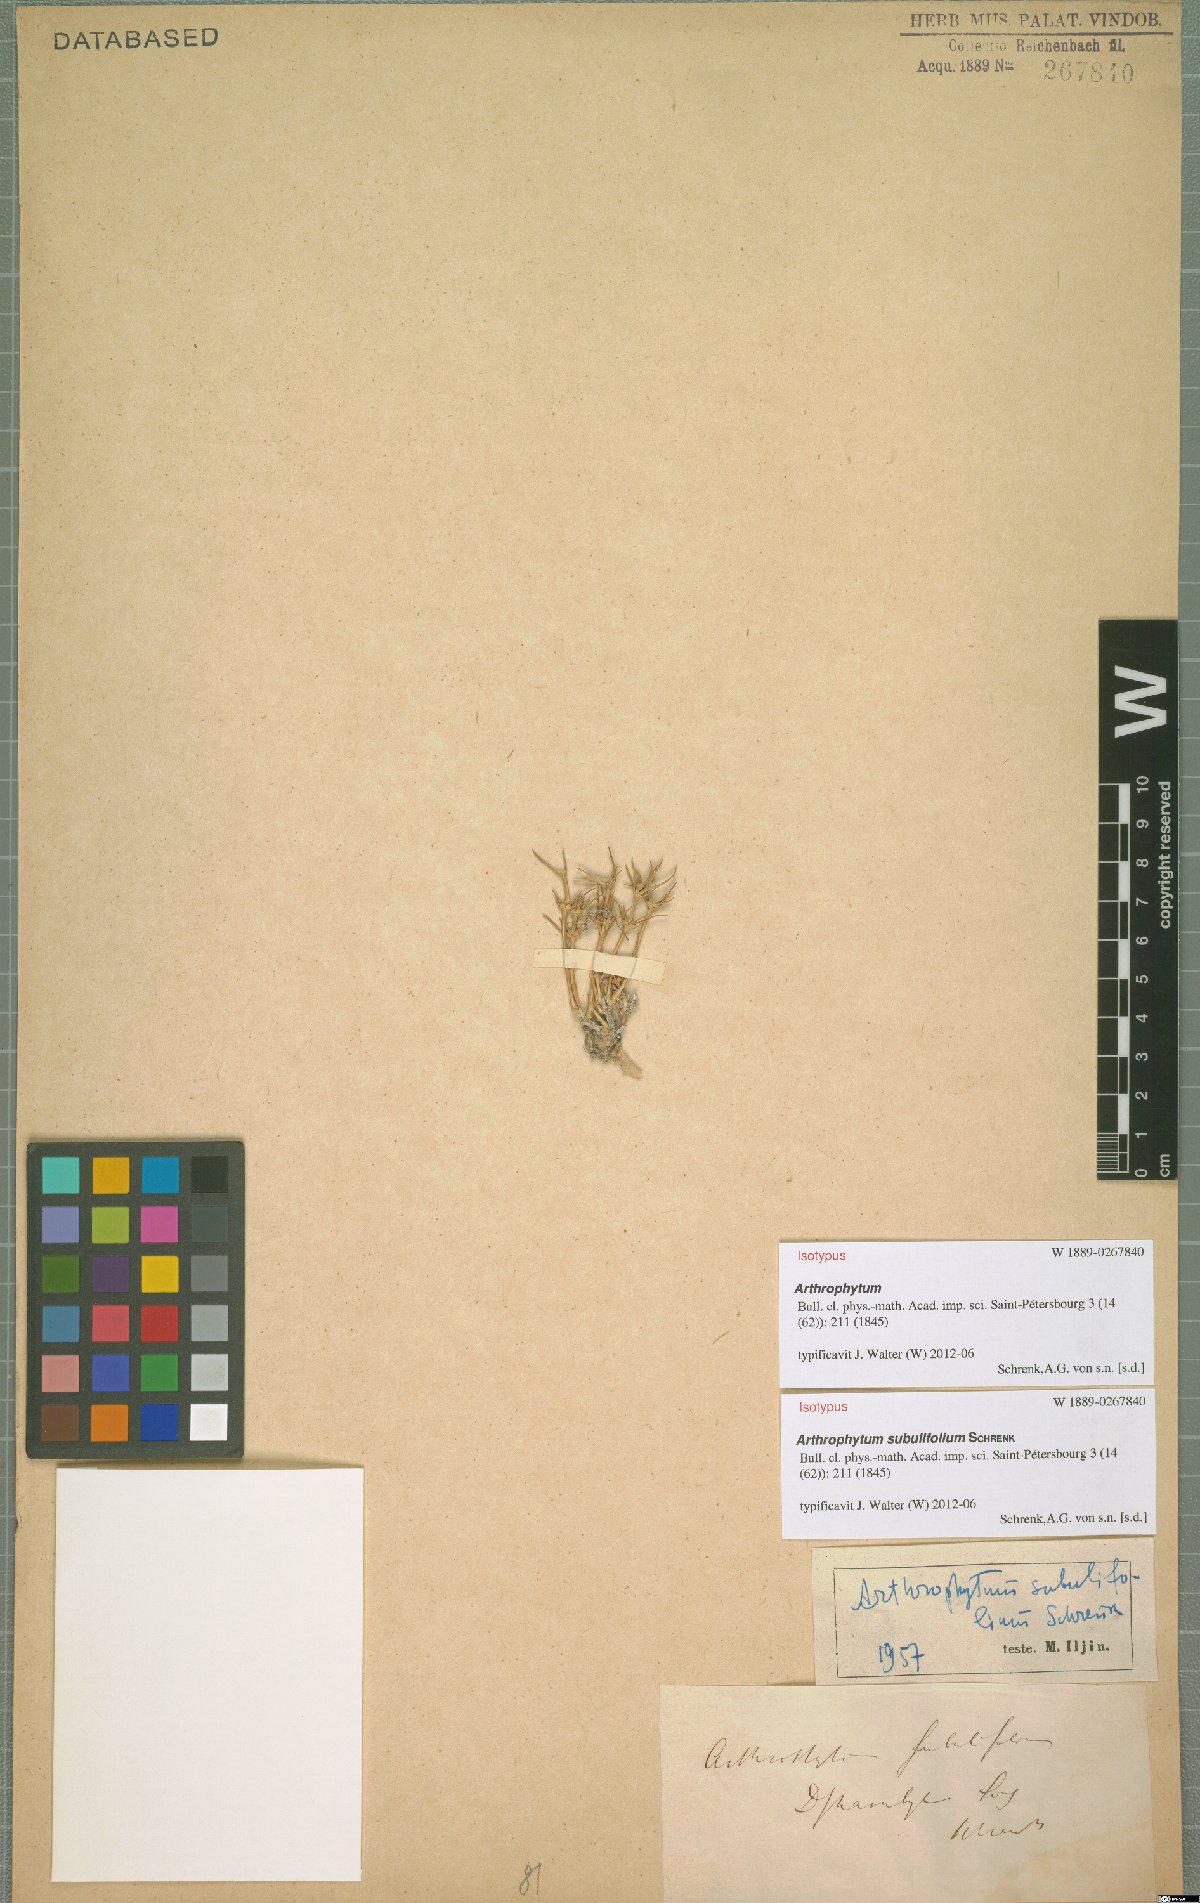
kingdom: Plantae
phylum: Tracheophyta
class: Magnoliopsida
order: Caryophyllales
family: Amaranthaceae
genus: Arthrophytum
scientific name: Arthrophytum subulifolium
